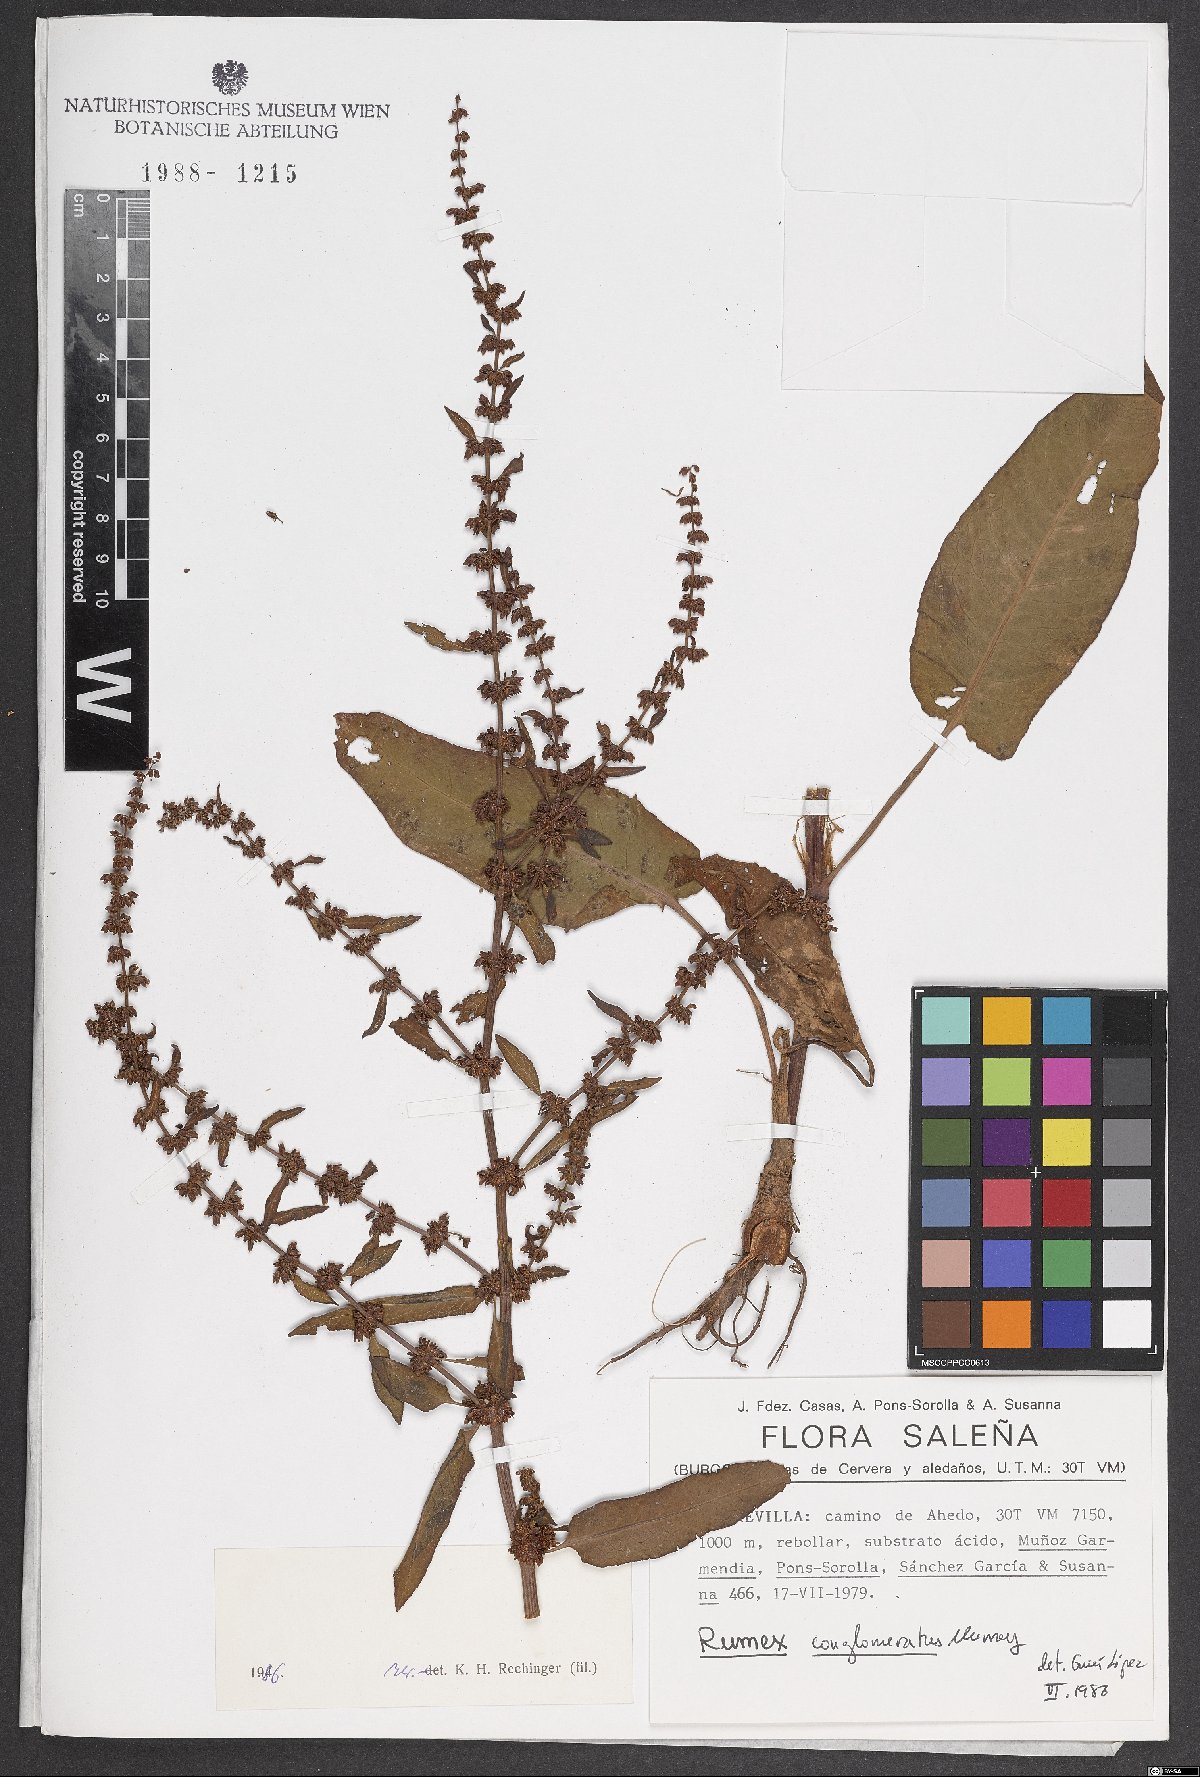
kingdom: Plantae
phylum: Tracheophyta
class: Magnoliopsida
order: Caryophyllales
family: Polygonaceae
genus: Rumex
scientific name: Rumex conglomeratus
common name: Clustered dock
